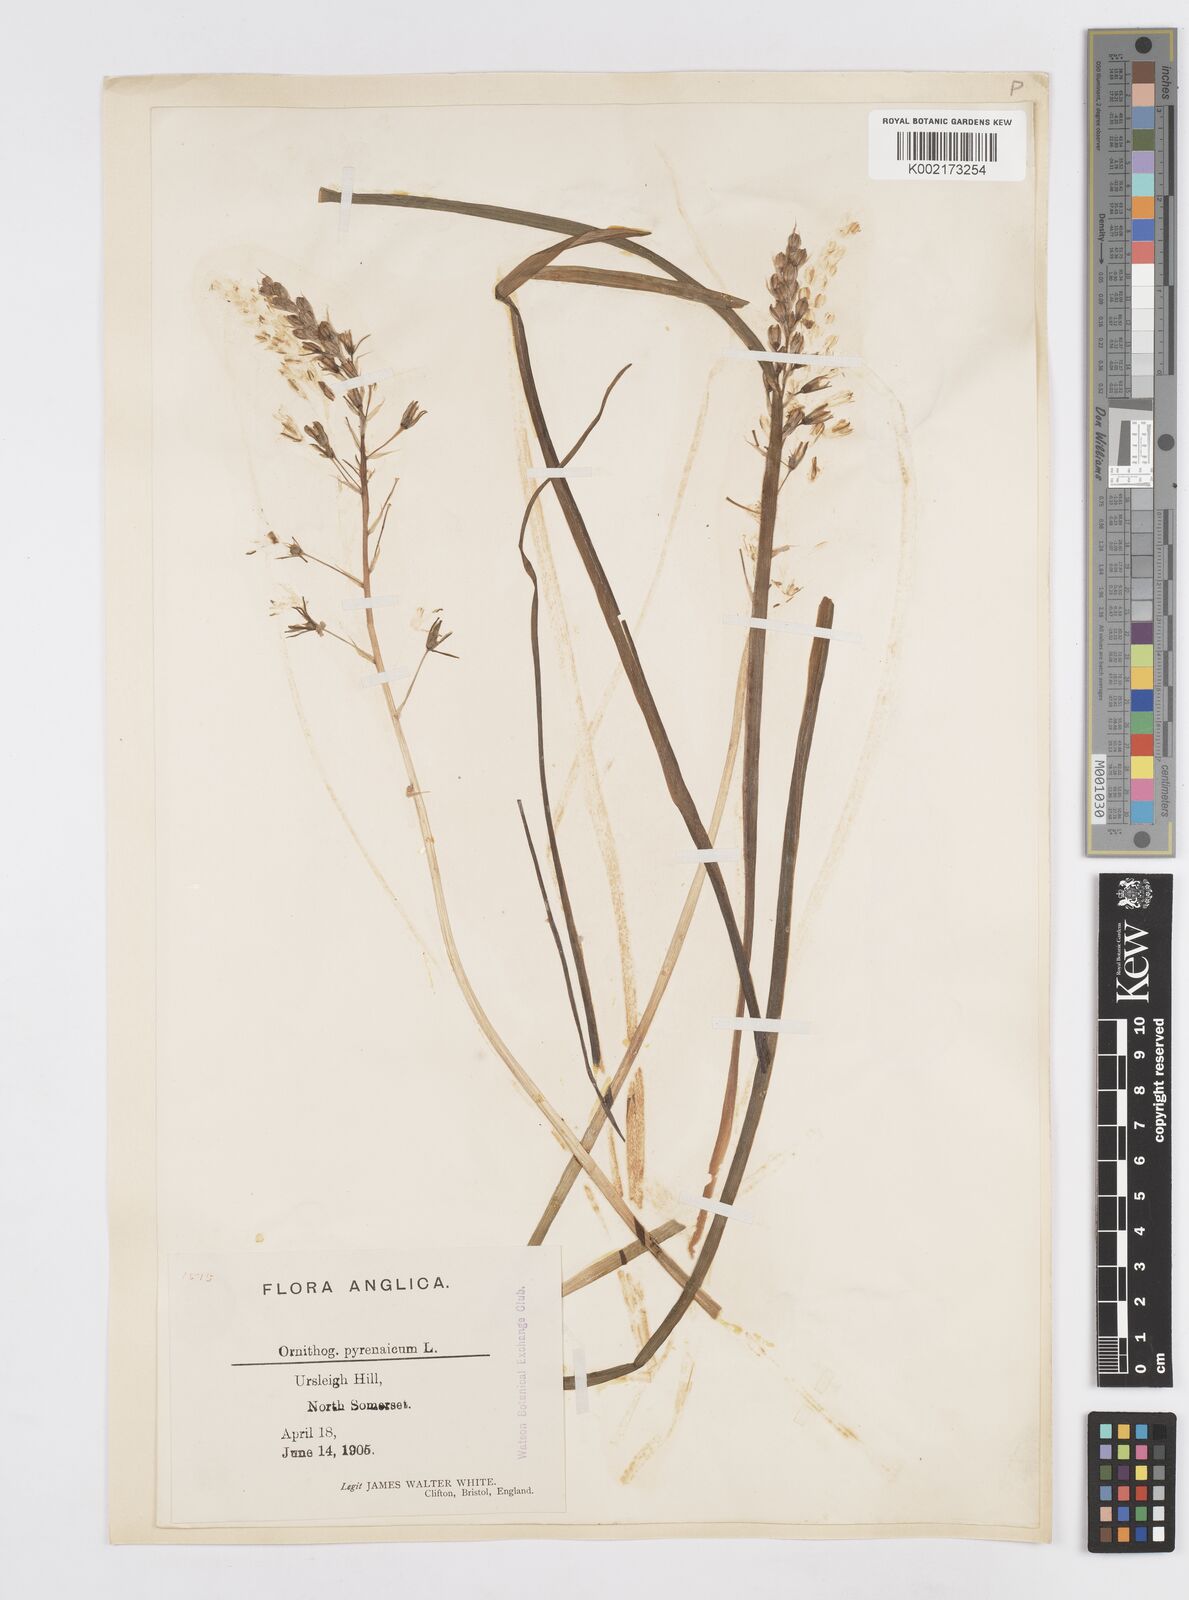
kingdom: Plantae
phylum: Tracheophyta
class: Liliopsida
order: Asparagales
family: Asparagaceae
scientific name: Asparagaceae
